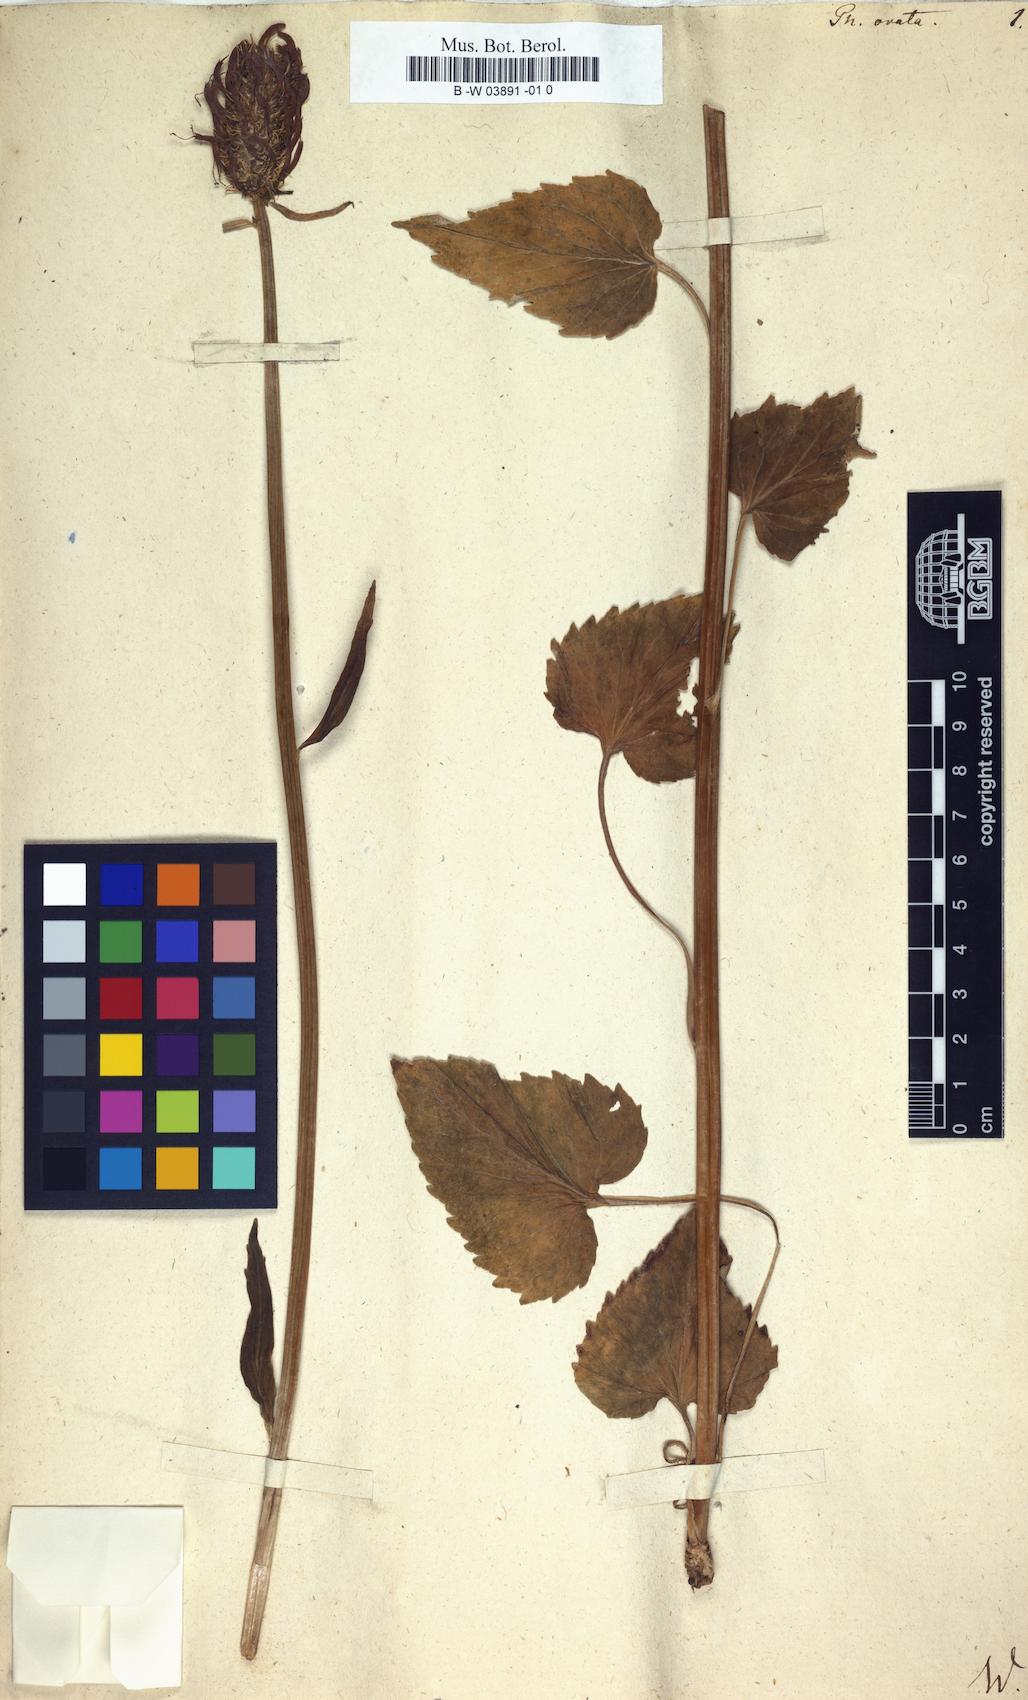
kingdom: Plantae
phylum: Tracheophyta
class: Magnoliopsida
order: Asterales
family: Campanulaceae
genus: Phyteuma
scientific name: Phyteuma ovatum
